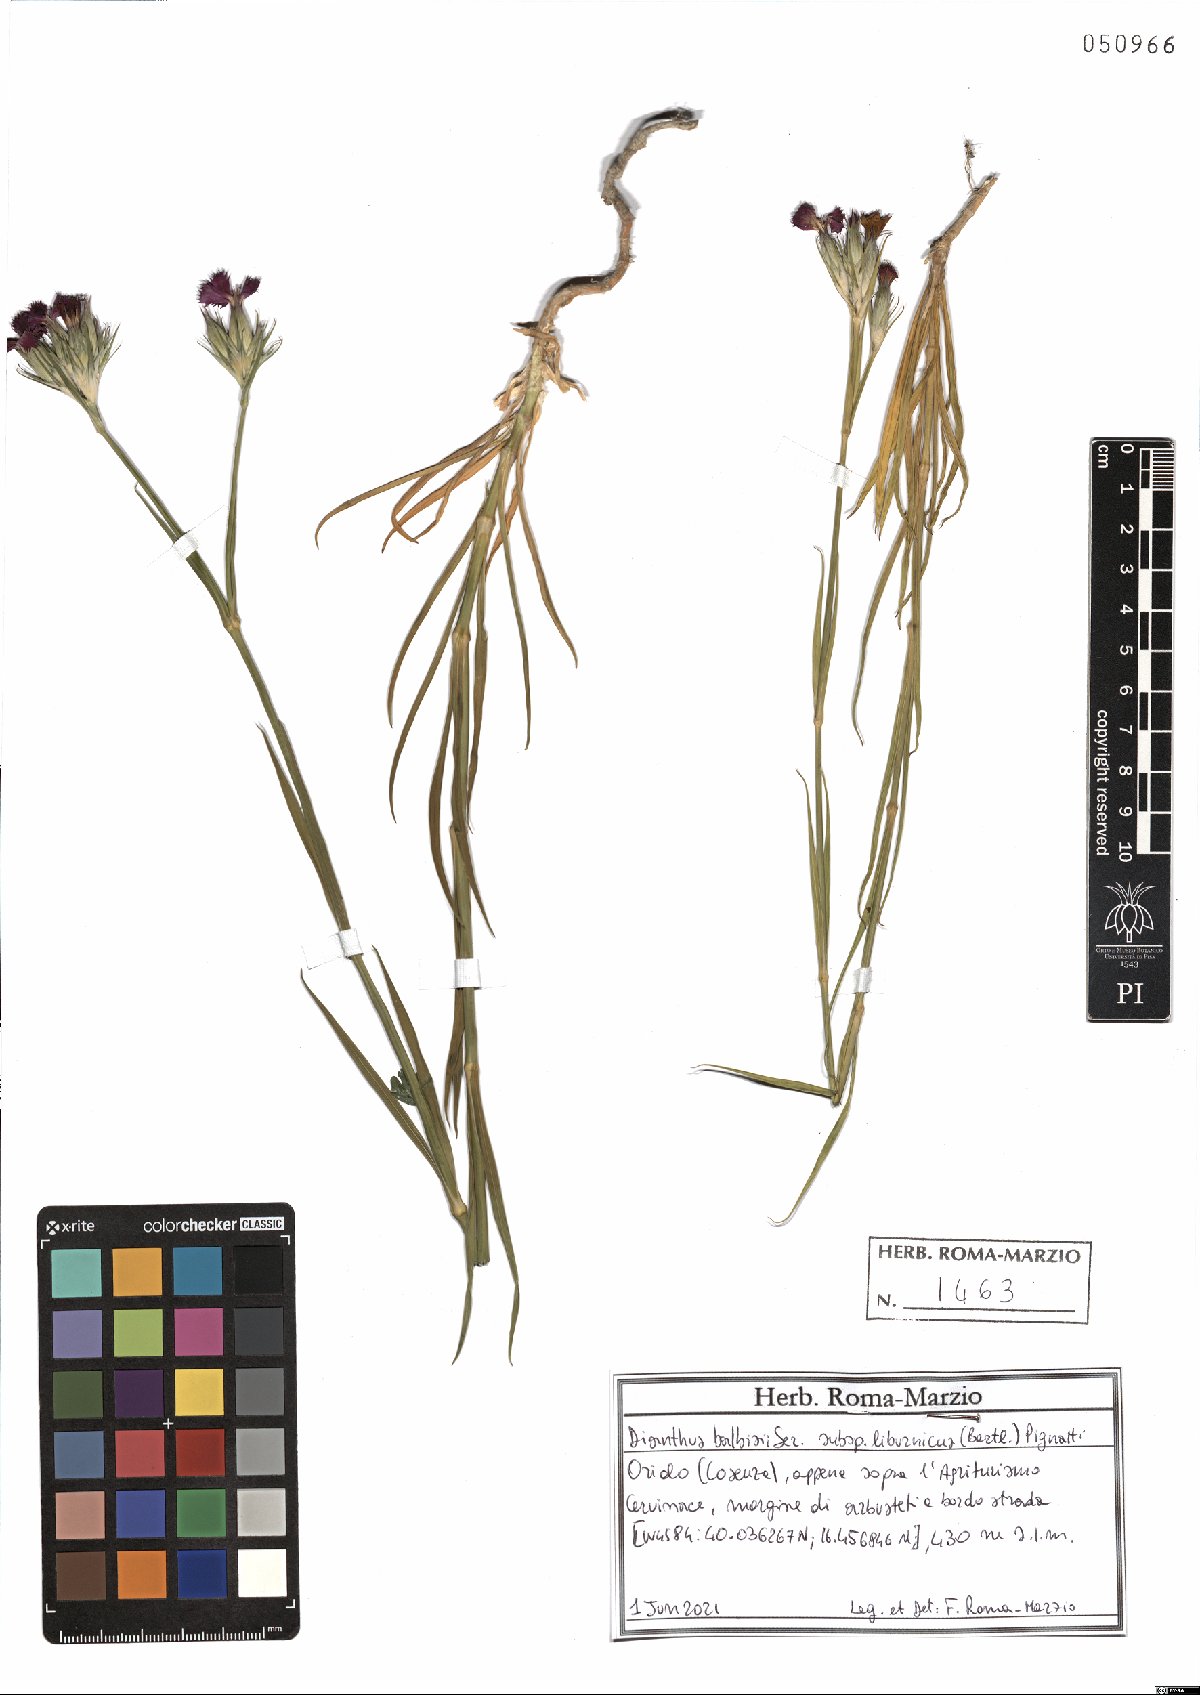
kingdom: Plantae
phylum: Tracheophyta
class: Magnoliopsida
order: Caryophyllales
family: Caryophyllaceae
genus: Dianthus
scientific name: Dianthus balbisii
